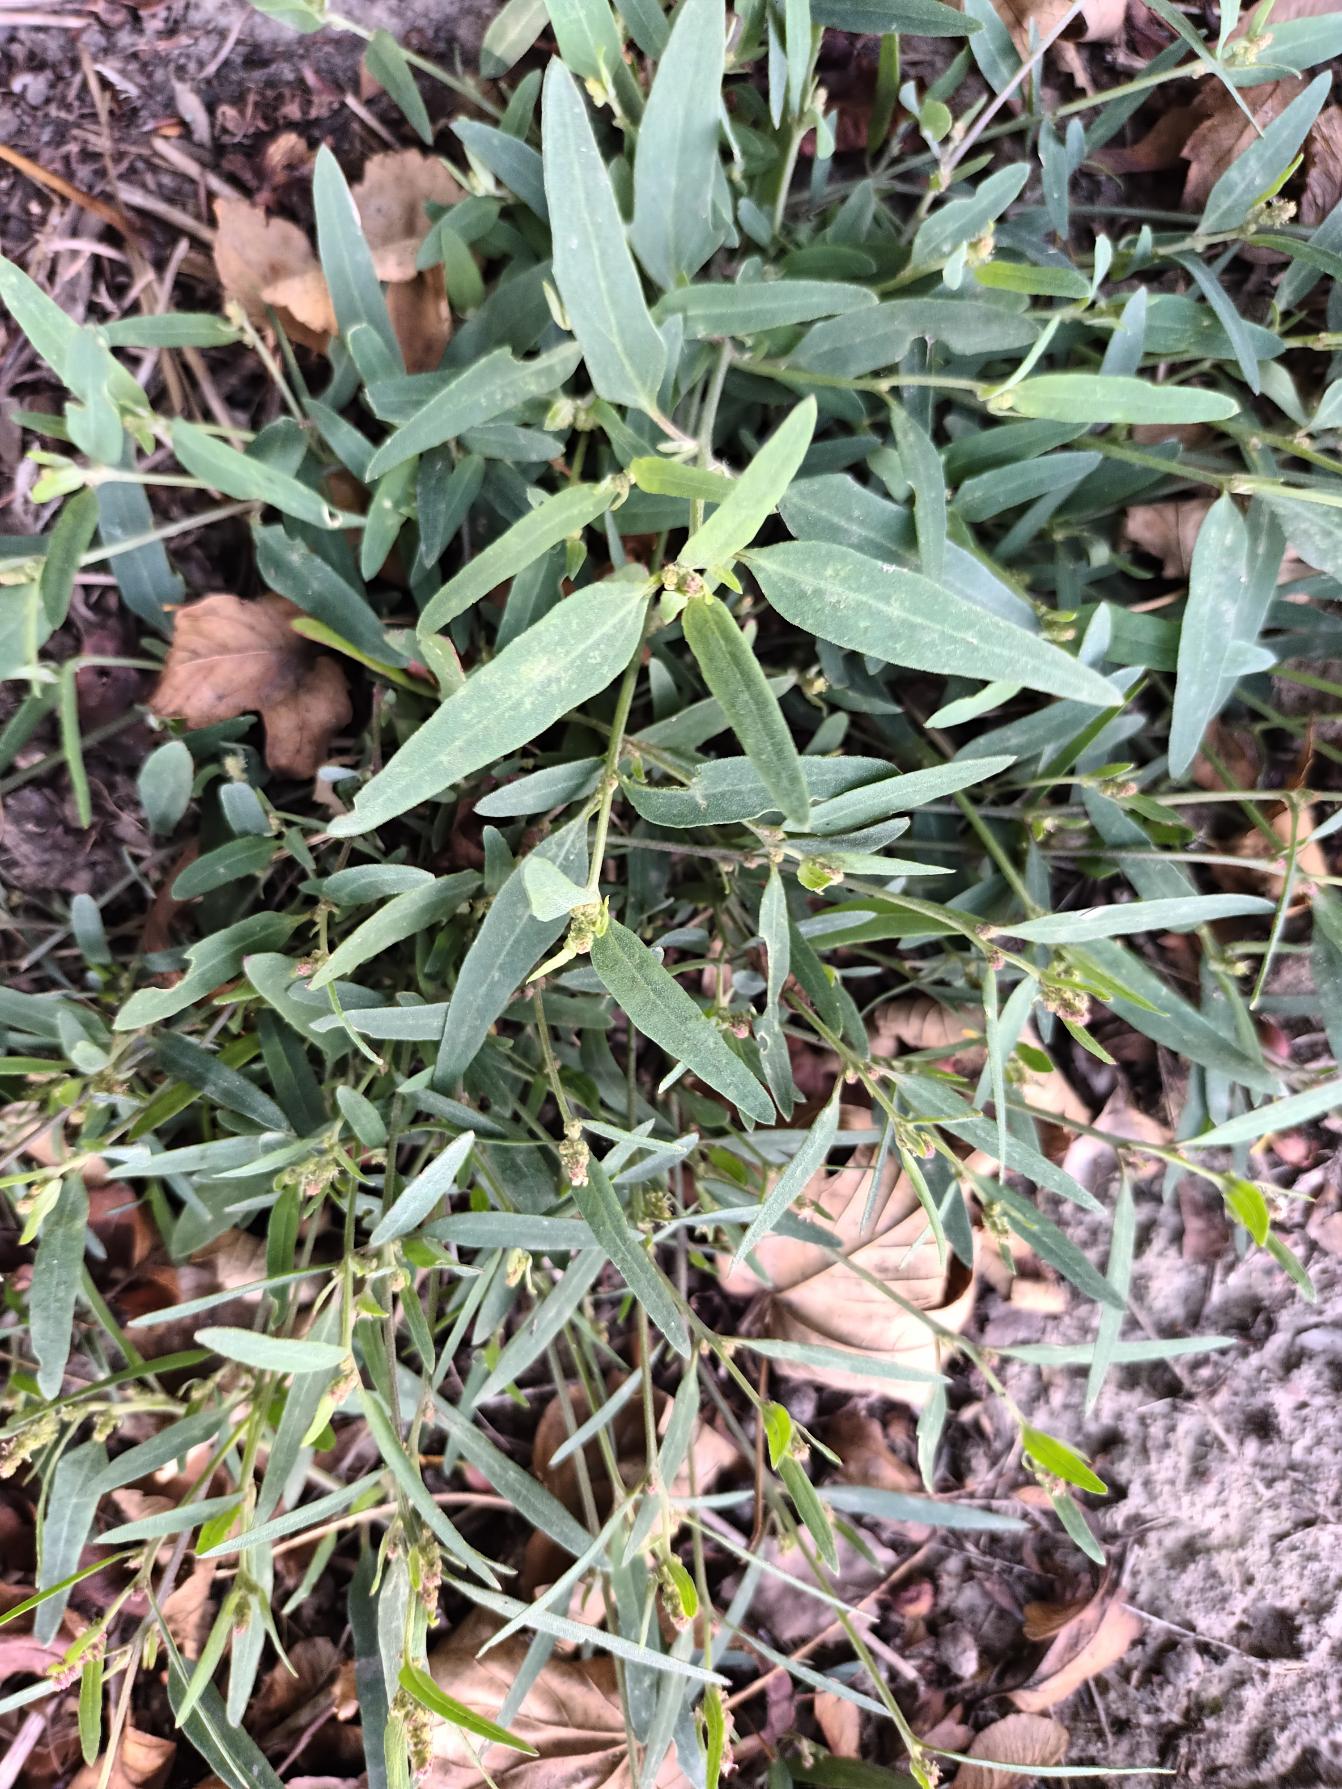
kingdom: Plantae
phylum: Tracheophyta
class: Magnoliopsida
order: Caryophyllales
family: Amaranthaceae
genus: Atriplex
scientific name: Atriplex patula
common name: Svine-mælde
